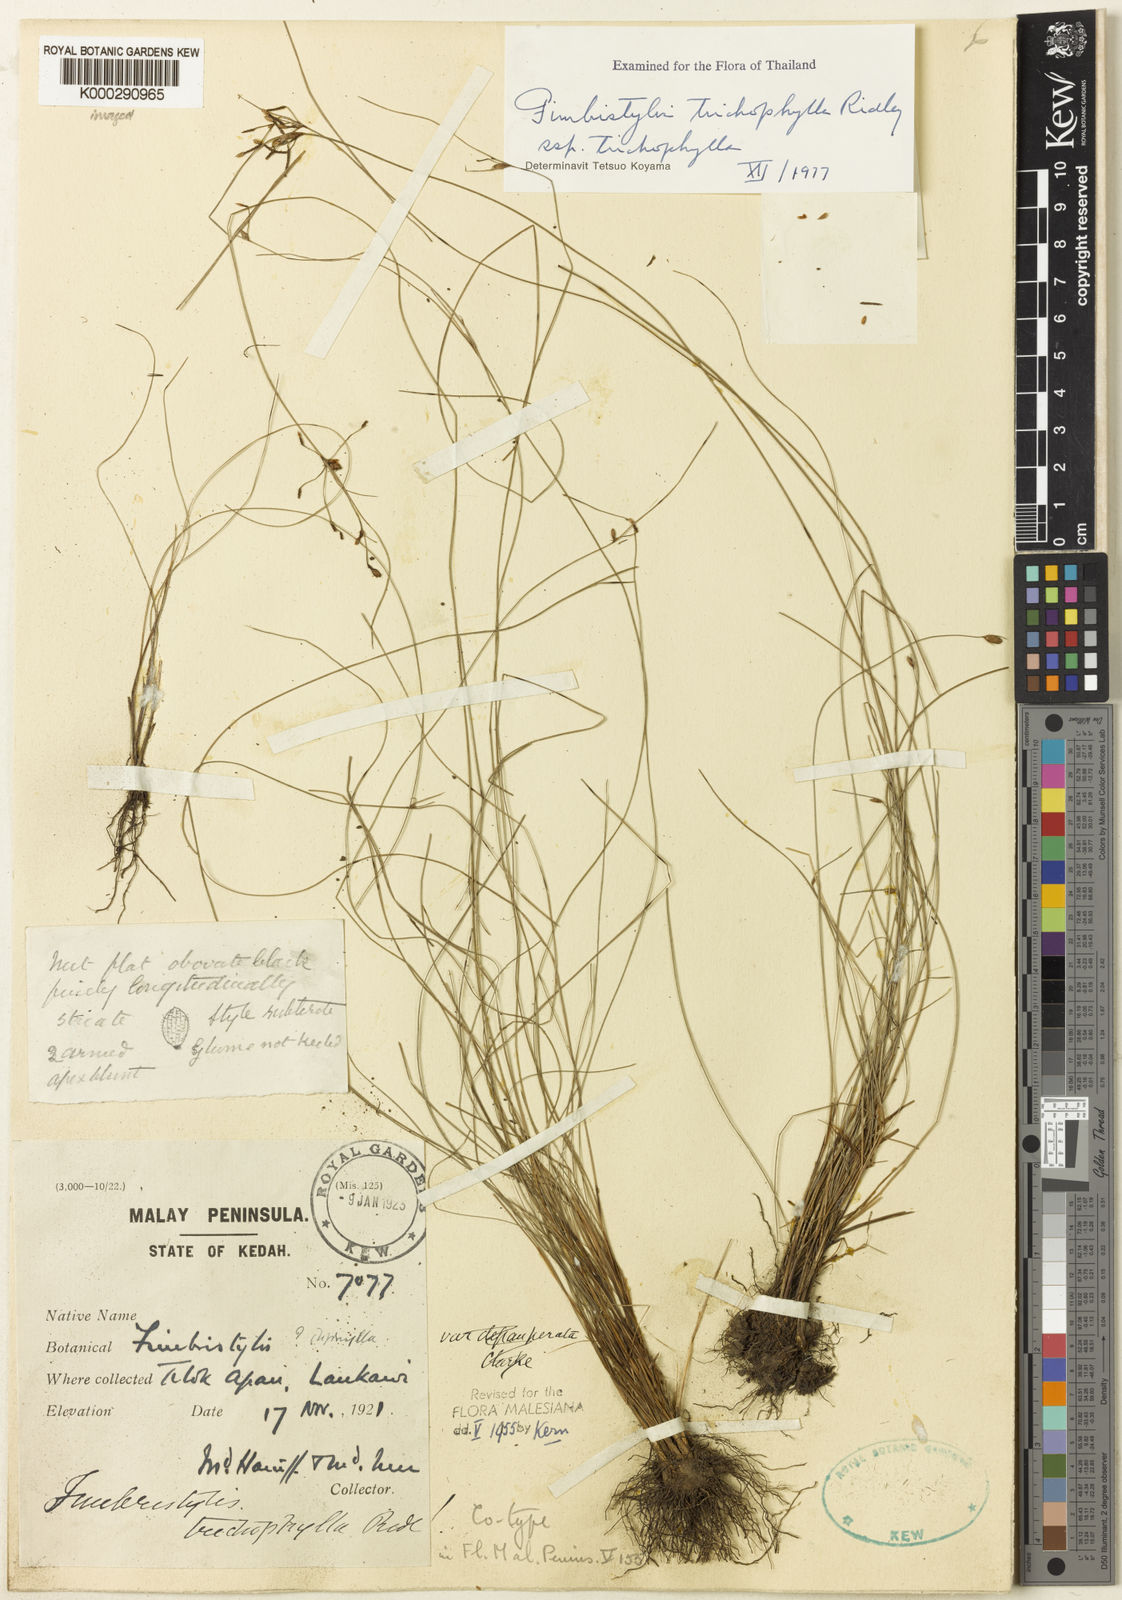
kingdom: Plantae
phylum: Tracheophyta
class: Liliopsida
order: Poales
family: Cyperaceae
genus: Fimbristylis
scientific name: Fimbristylis trichophylla
